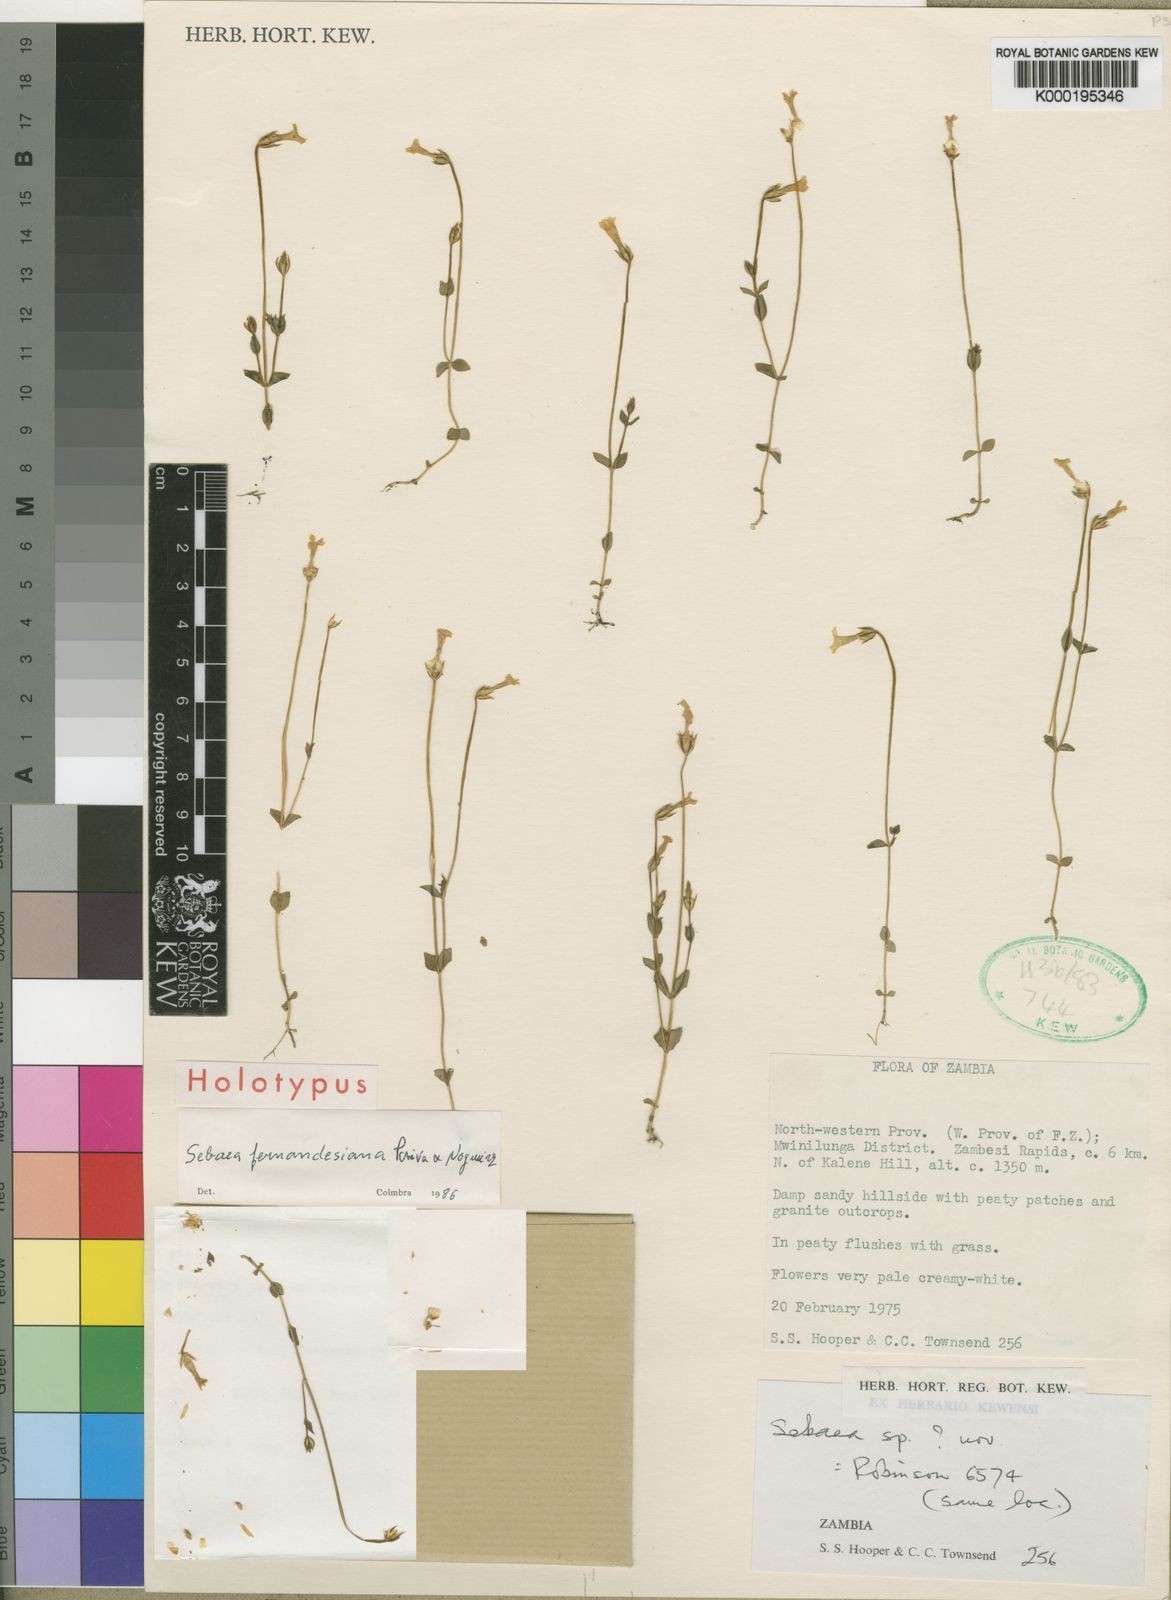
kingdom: Plantae
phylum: Tracheophyta
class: Magnoliopsida
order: Gentianales
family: Gentianaceae
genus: Exochaenium
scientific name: Exochaenium fernandesianum
